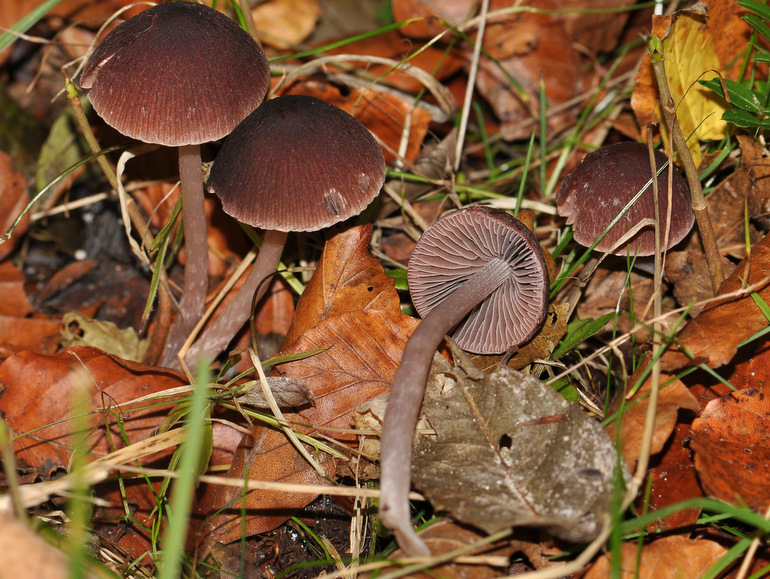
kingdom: Fungi
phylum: Basidiomycota
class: Agaricomycetes
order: Agaricales
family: Psathyrellaceae
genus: Psathyrella
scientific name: Psathyrella bipellis
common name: vinrød mørkhat
